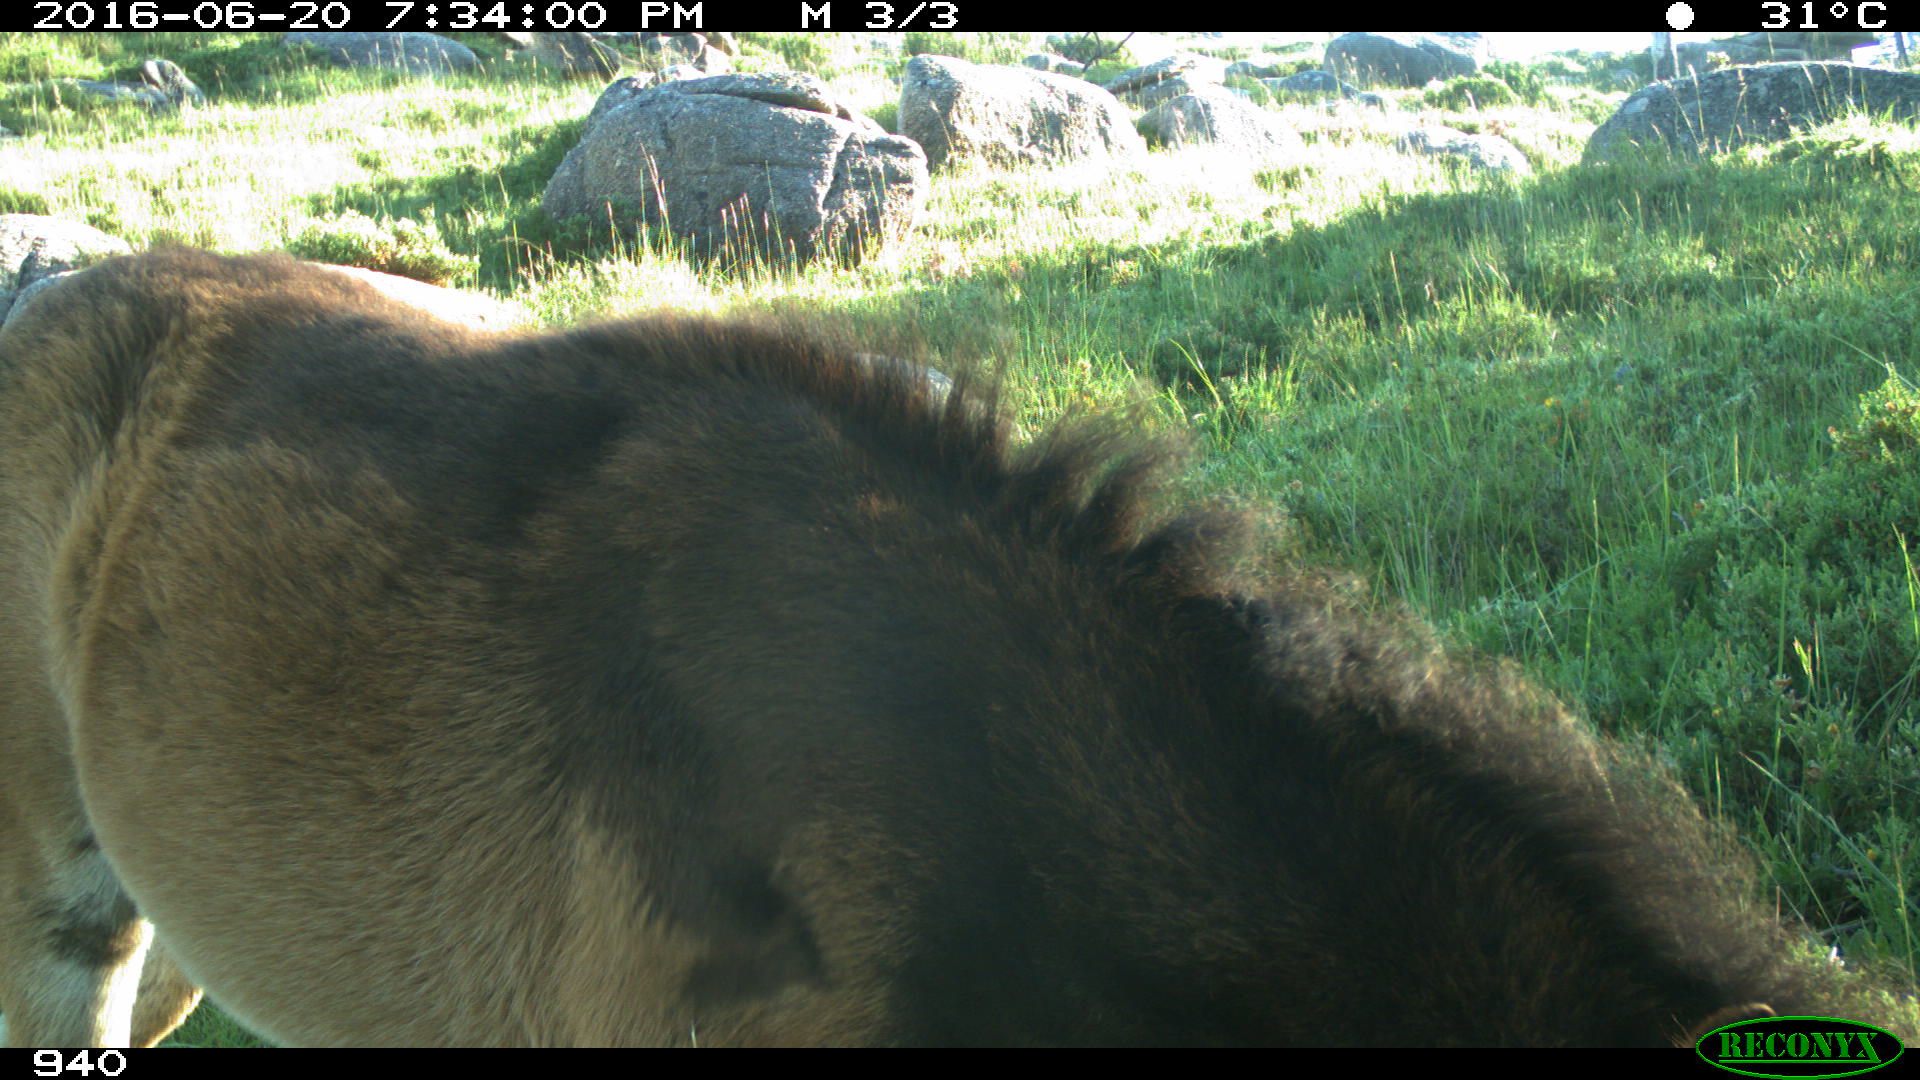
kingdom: Animalia
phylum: Chordata
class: Mammalia
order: Perissodactyla
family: Equidae
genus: Equus
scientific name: Equus caballus
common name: Horse
